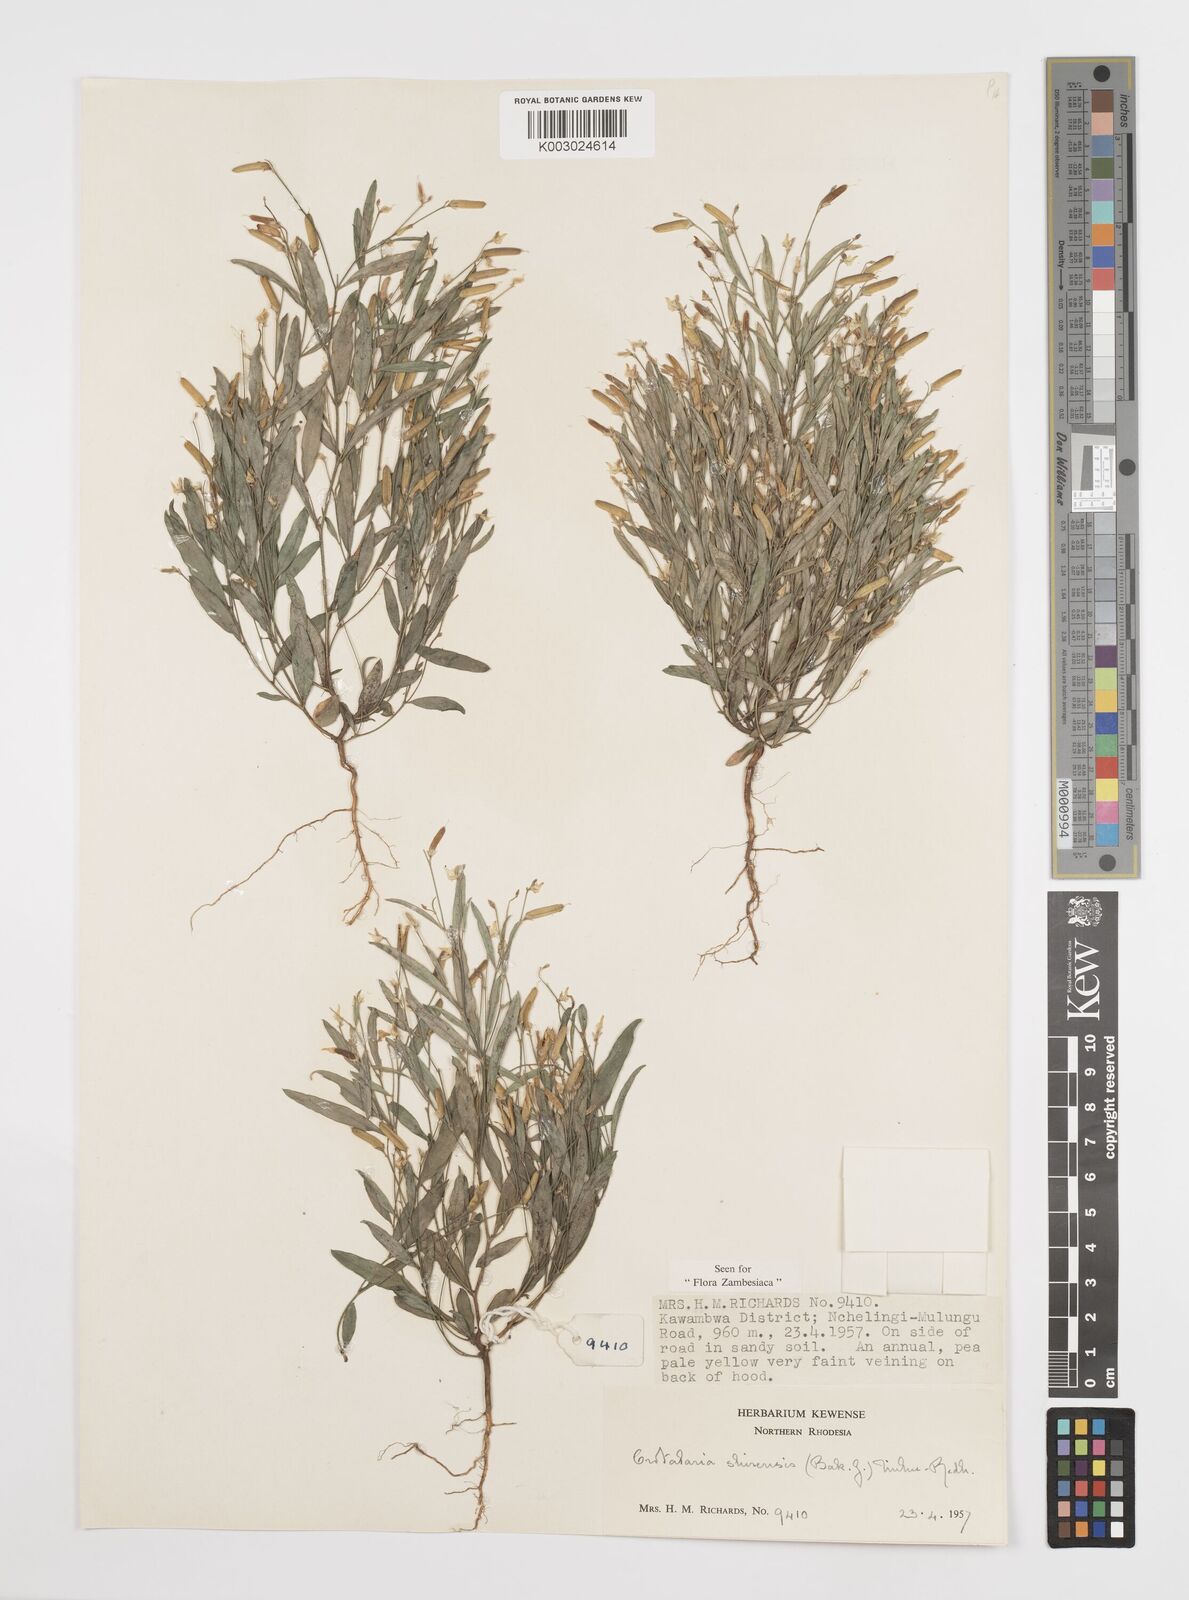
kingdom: Plantae
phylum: Tracheophyta
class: Magnoliopsida
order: Fabales
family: Fabaceae
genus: Crotalaria
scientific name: Crotalaria shirensis
